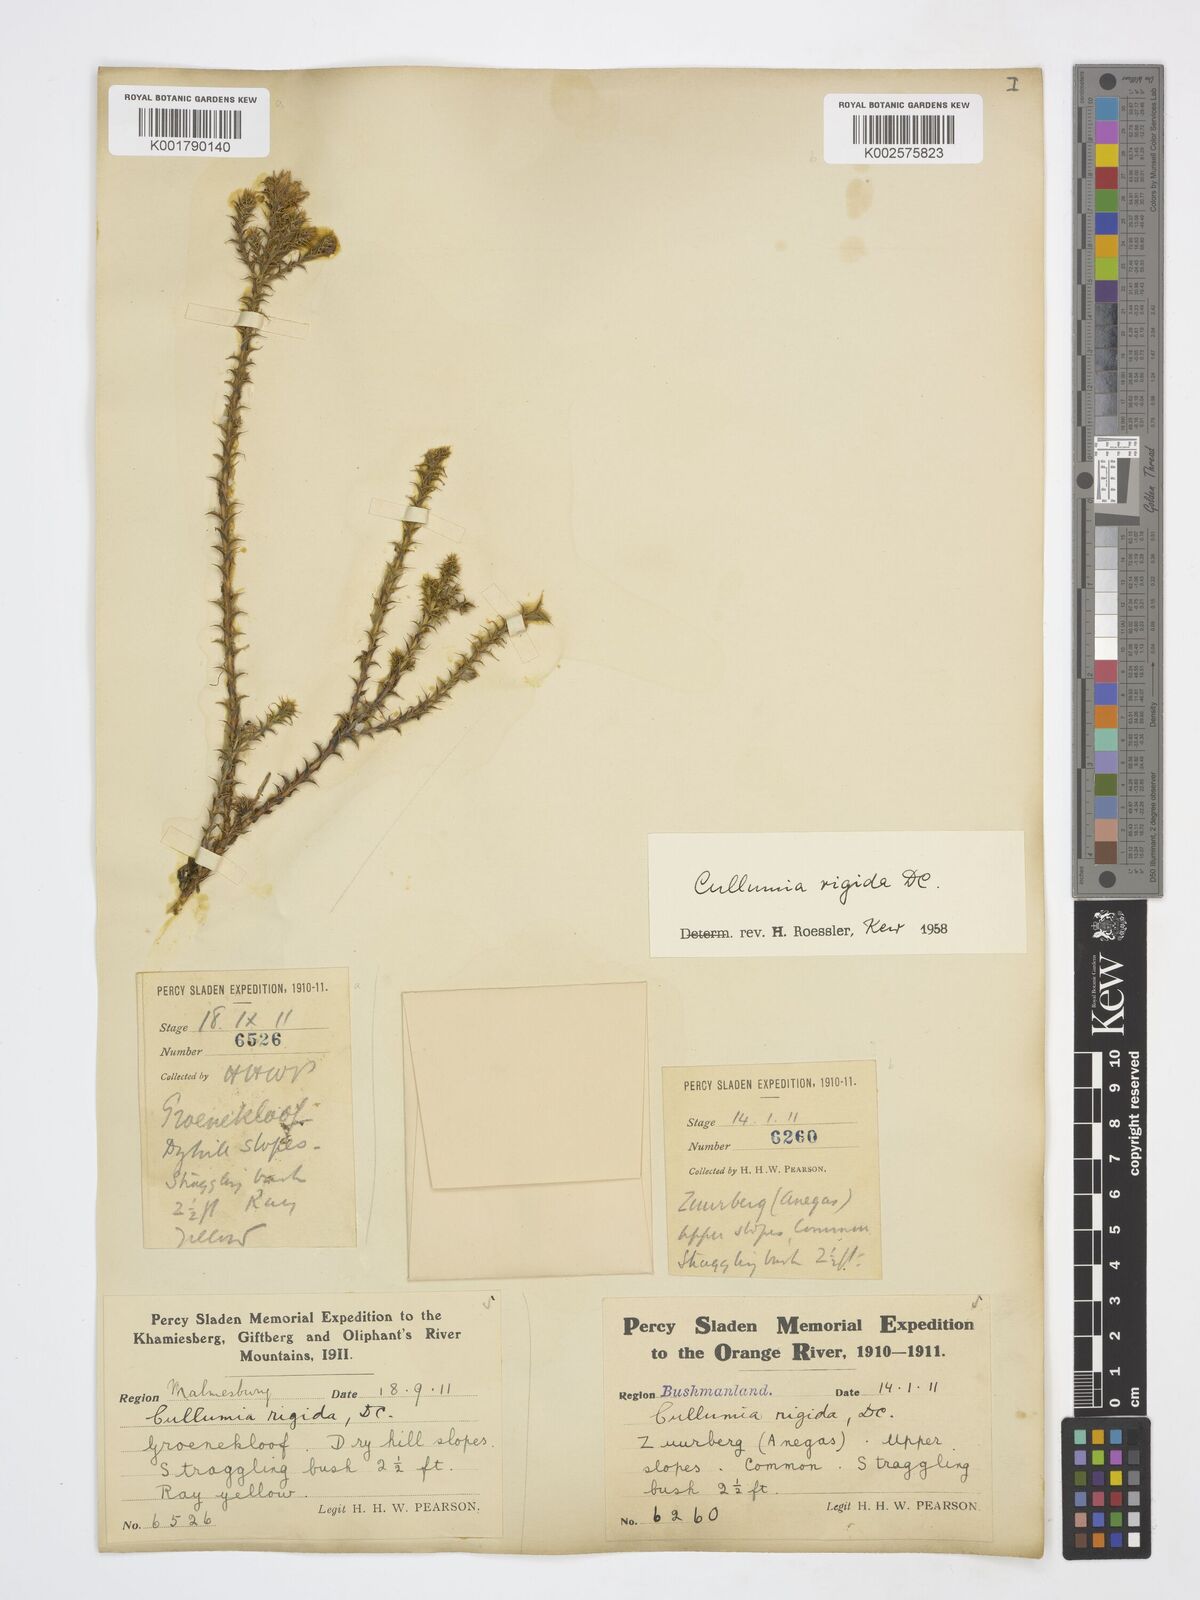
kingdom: Plantae
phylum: Tracheophyta
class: Magnoliopsida
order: Asterales
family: Asteraceae
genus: Cullumia
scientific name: Cullumia rigida
